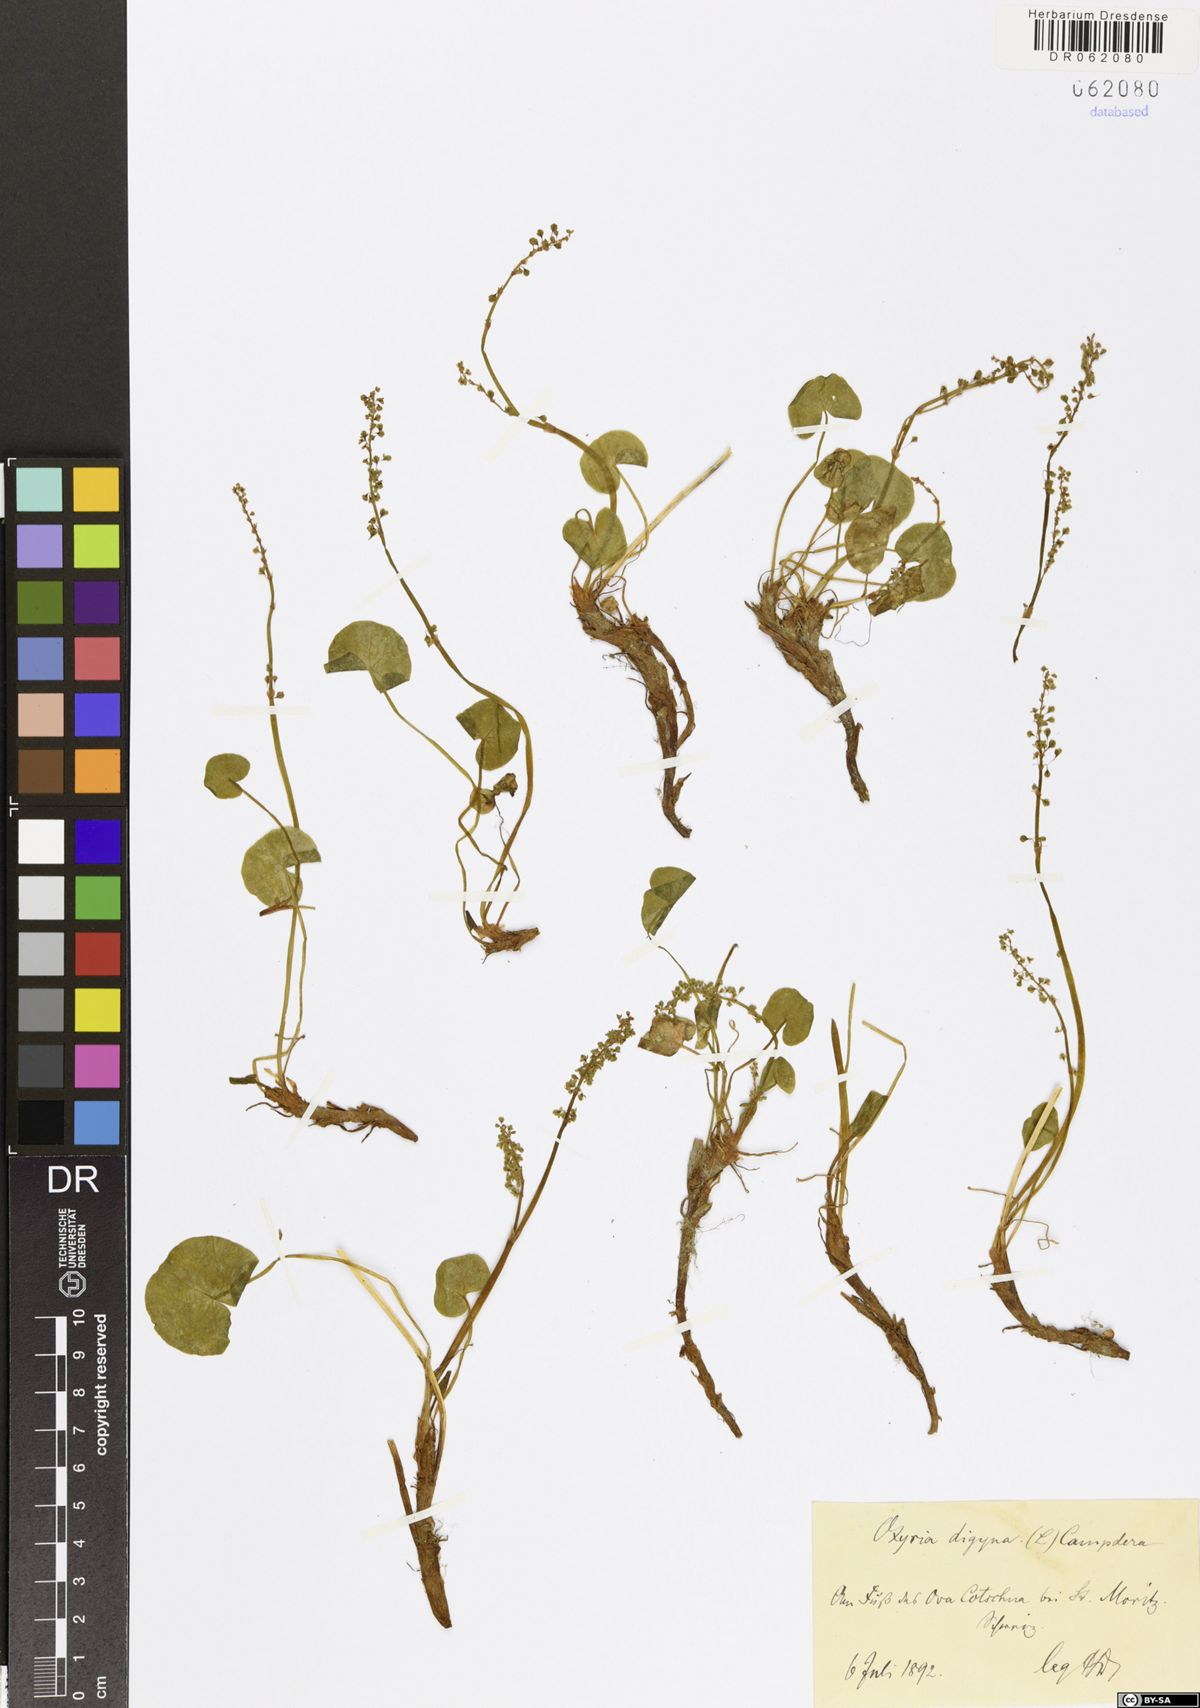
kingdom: Plantae
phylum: Tracheophyta
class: Magnoliopsida
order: Caryophyllales
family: Polygonaceae
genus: Oxyria
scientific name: Oxyria digyna
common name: Alpine mountain-sorrel
